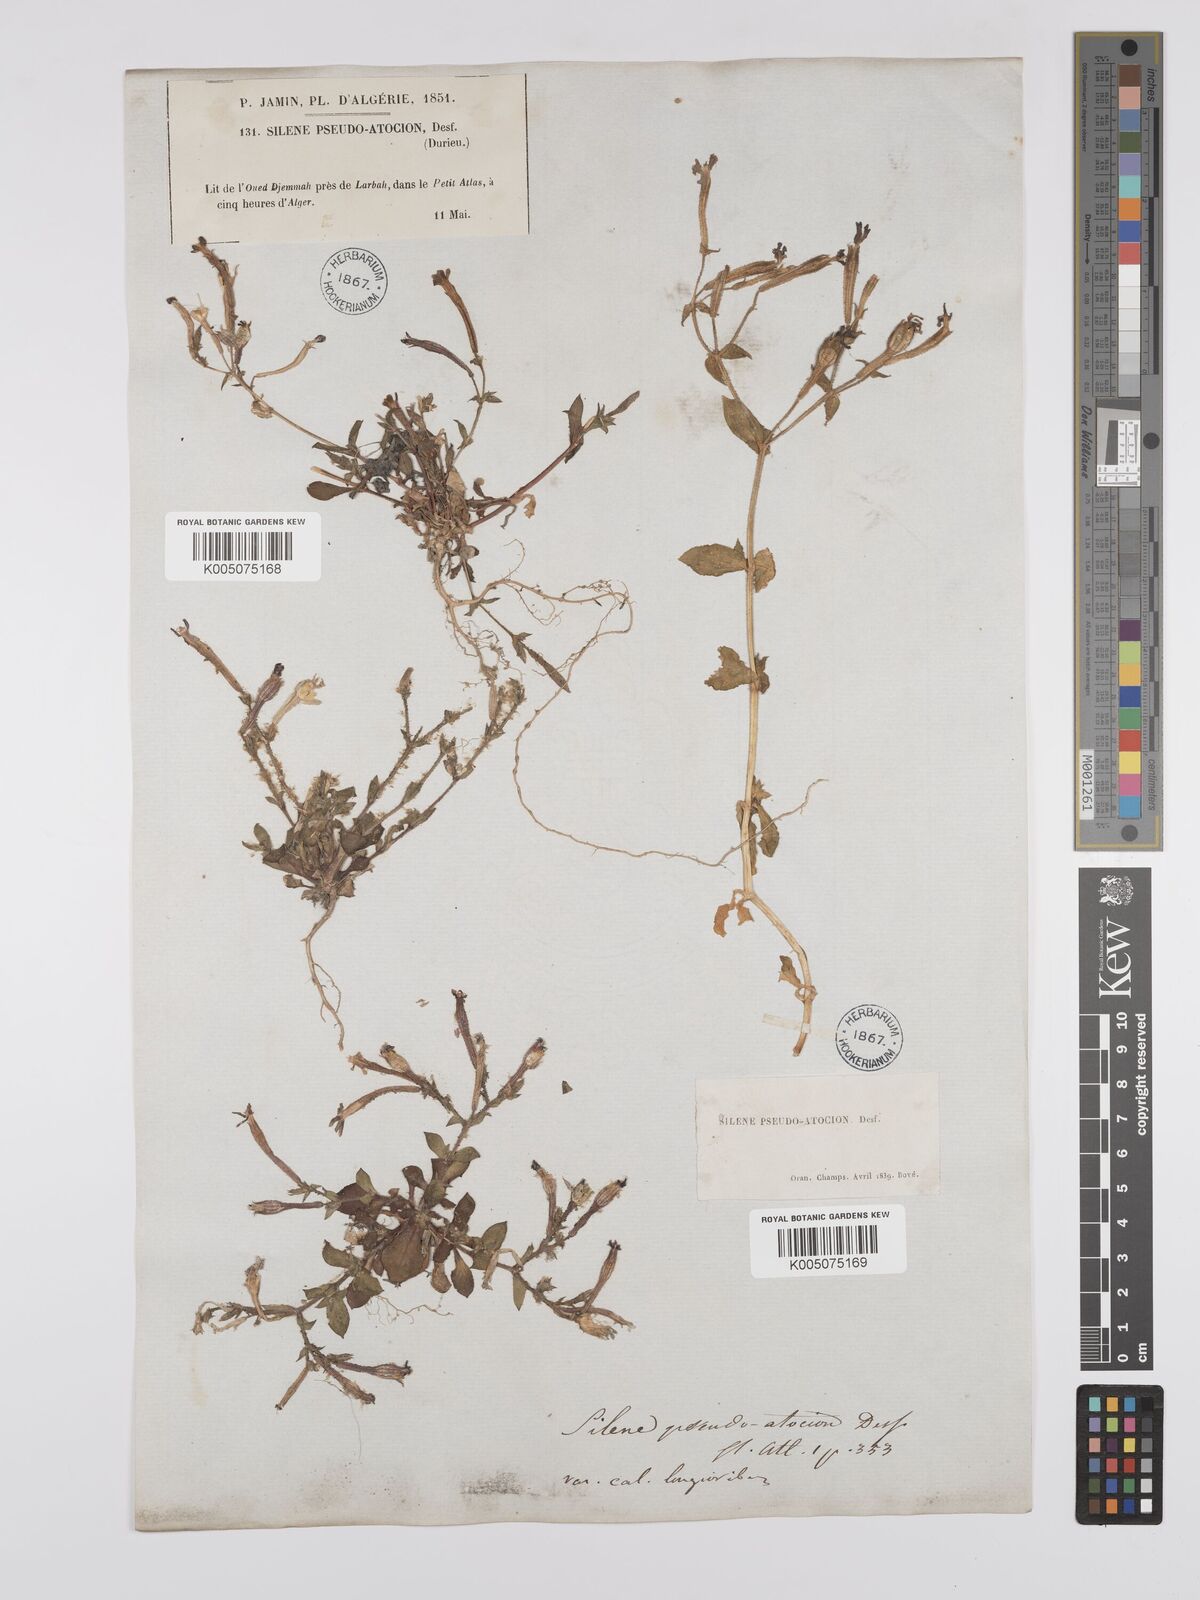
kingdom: Plantae
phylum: Tracheophyta
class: Magnoliopsida
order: Caryophyllales
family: Caryophyllaceae
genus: Silene
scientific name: Silene pseudoatocion
